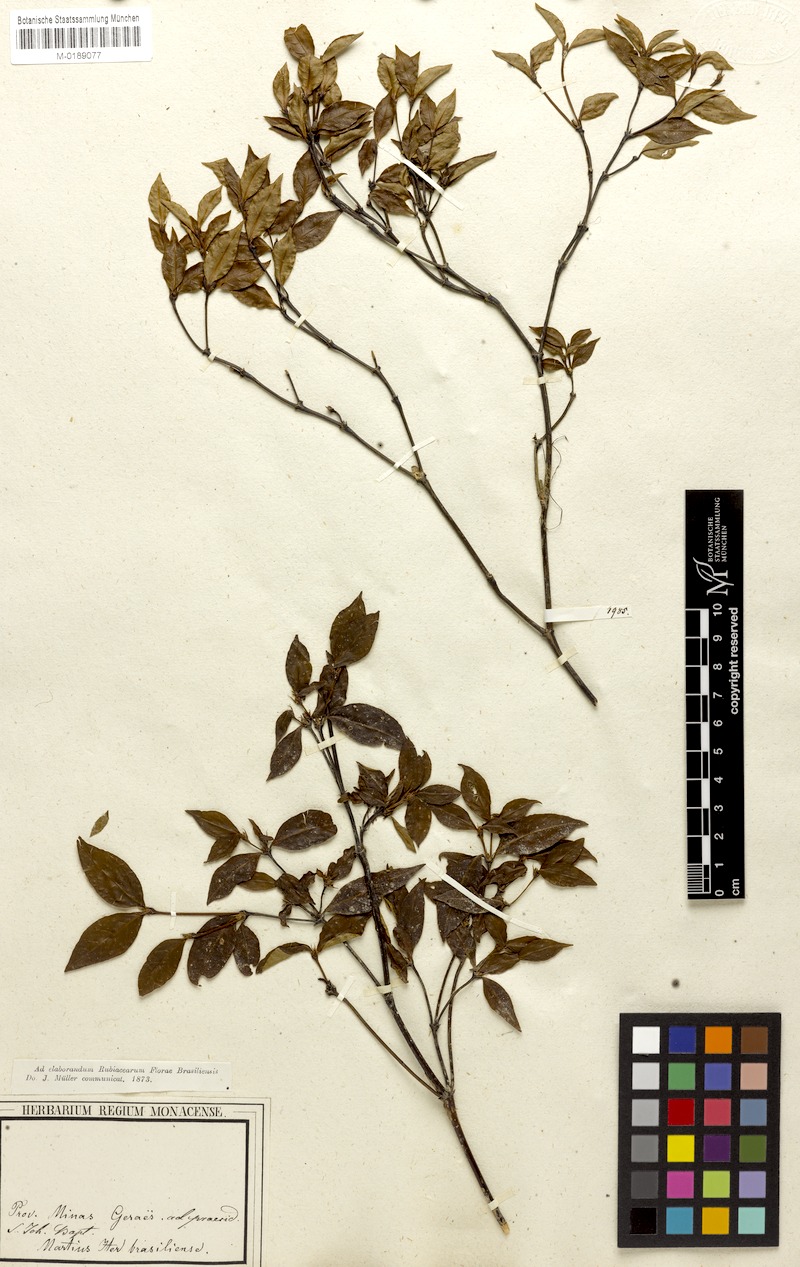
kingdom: Plantae
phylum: Tracheophyta
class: Magnoliopsida
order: Gentianales
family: Rubiaceae
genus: Psychotria
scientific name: Psychotria subtriflora
